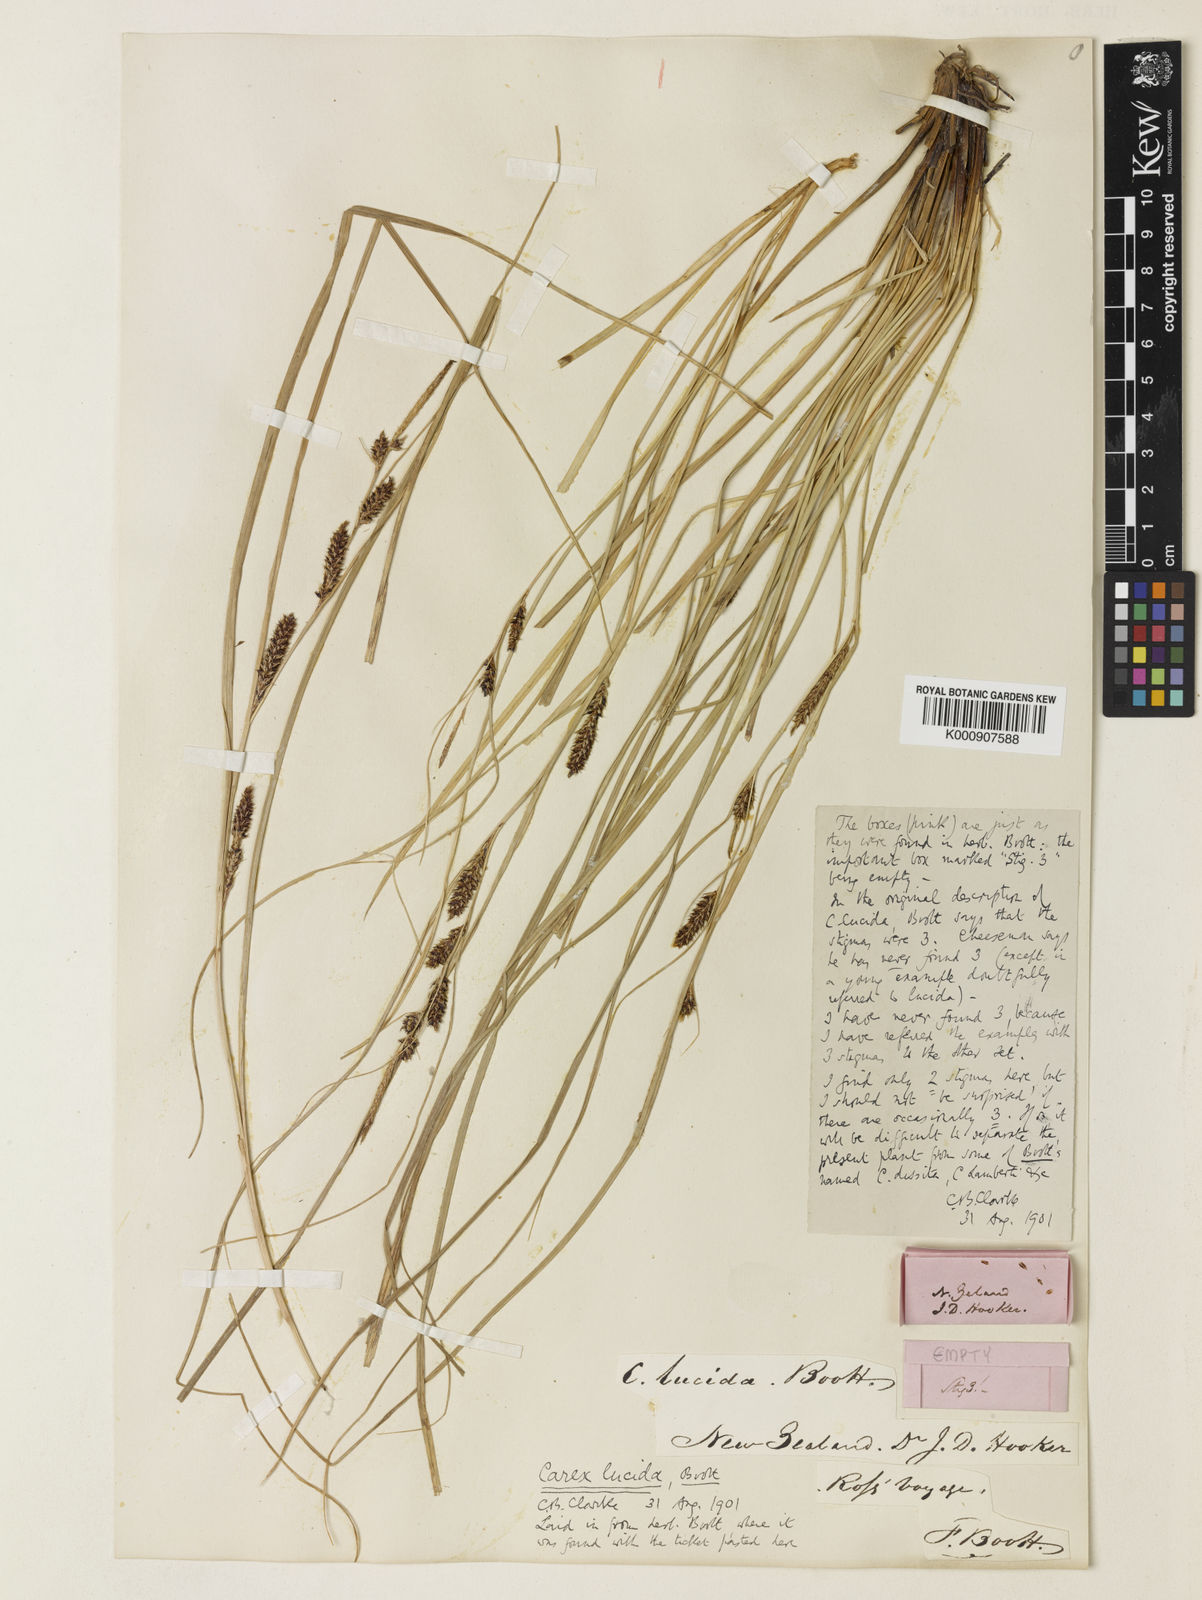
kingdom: Plantae
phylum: Tracheophyta
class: Liliopsida
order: Poales
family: Cyperaceae
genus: Carex
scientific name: Carex flagellifera
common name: Glen murray tussock
